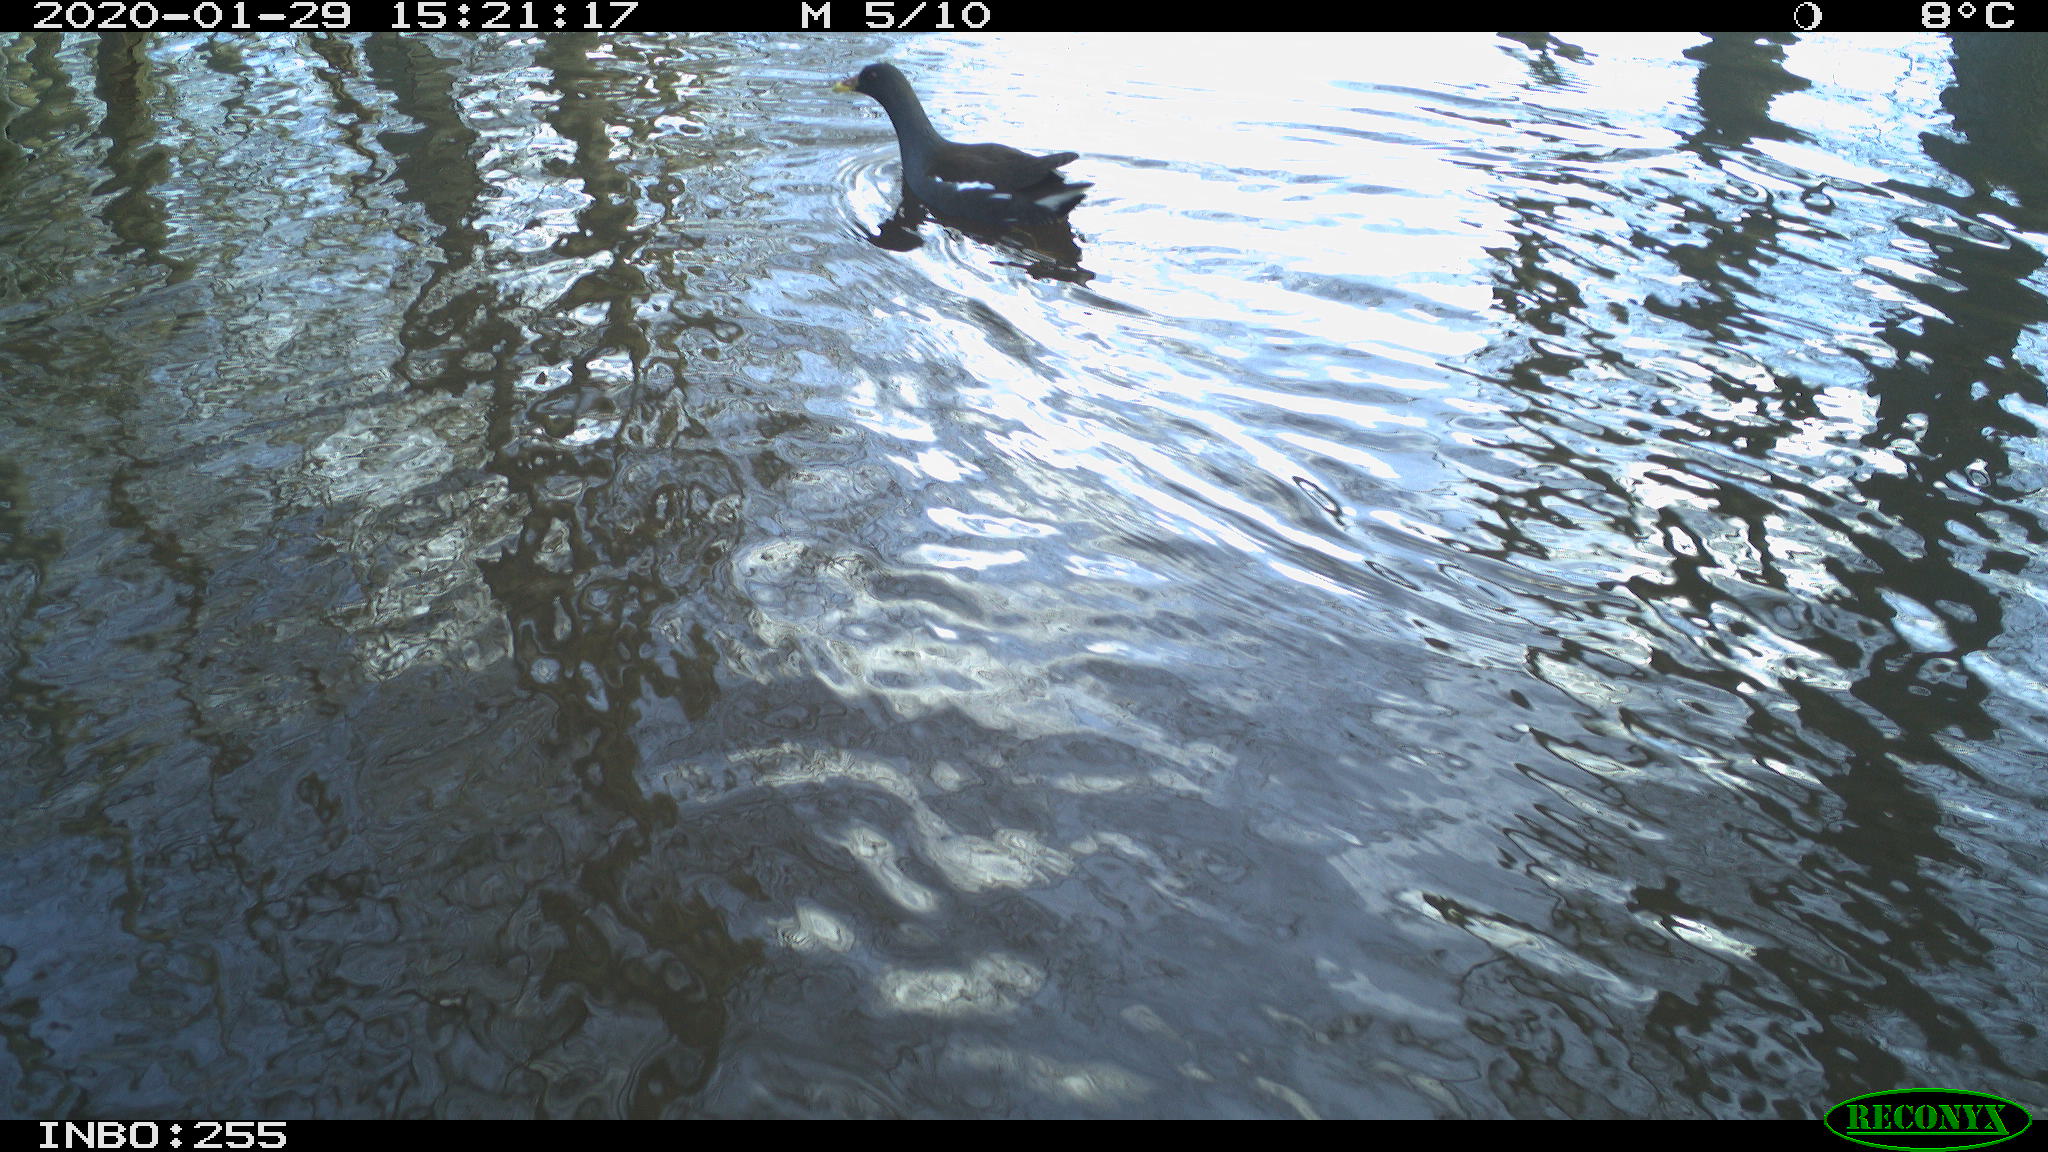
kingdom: Animalia
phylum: Chordata
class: Aves
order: Gruiformes
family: Rallidae
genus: Gallinula
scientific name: Gallinula chloropus
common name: Common moorhen
